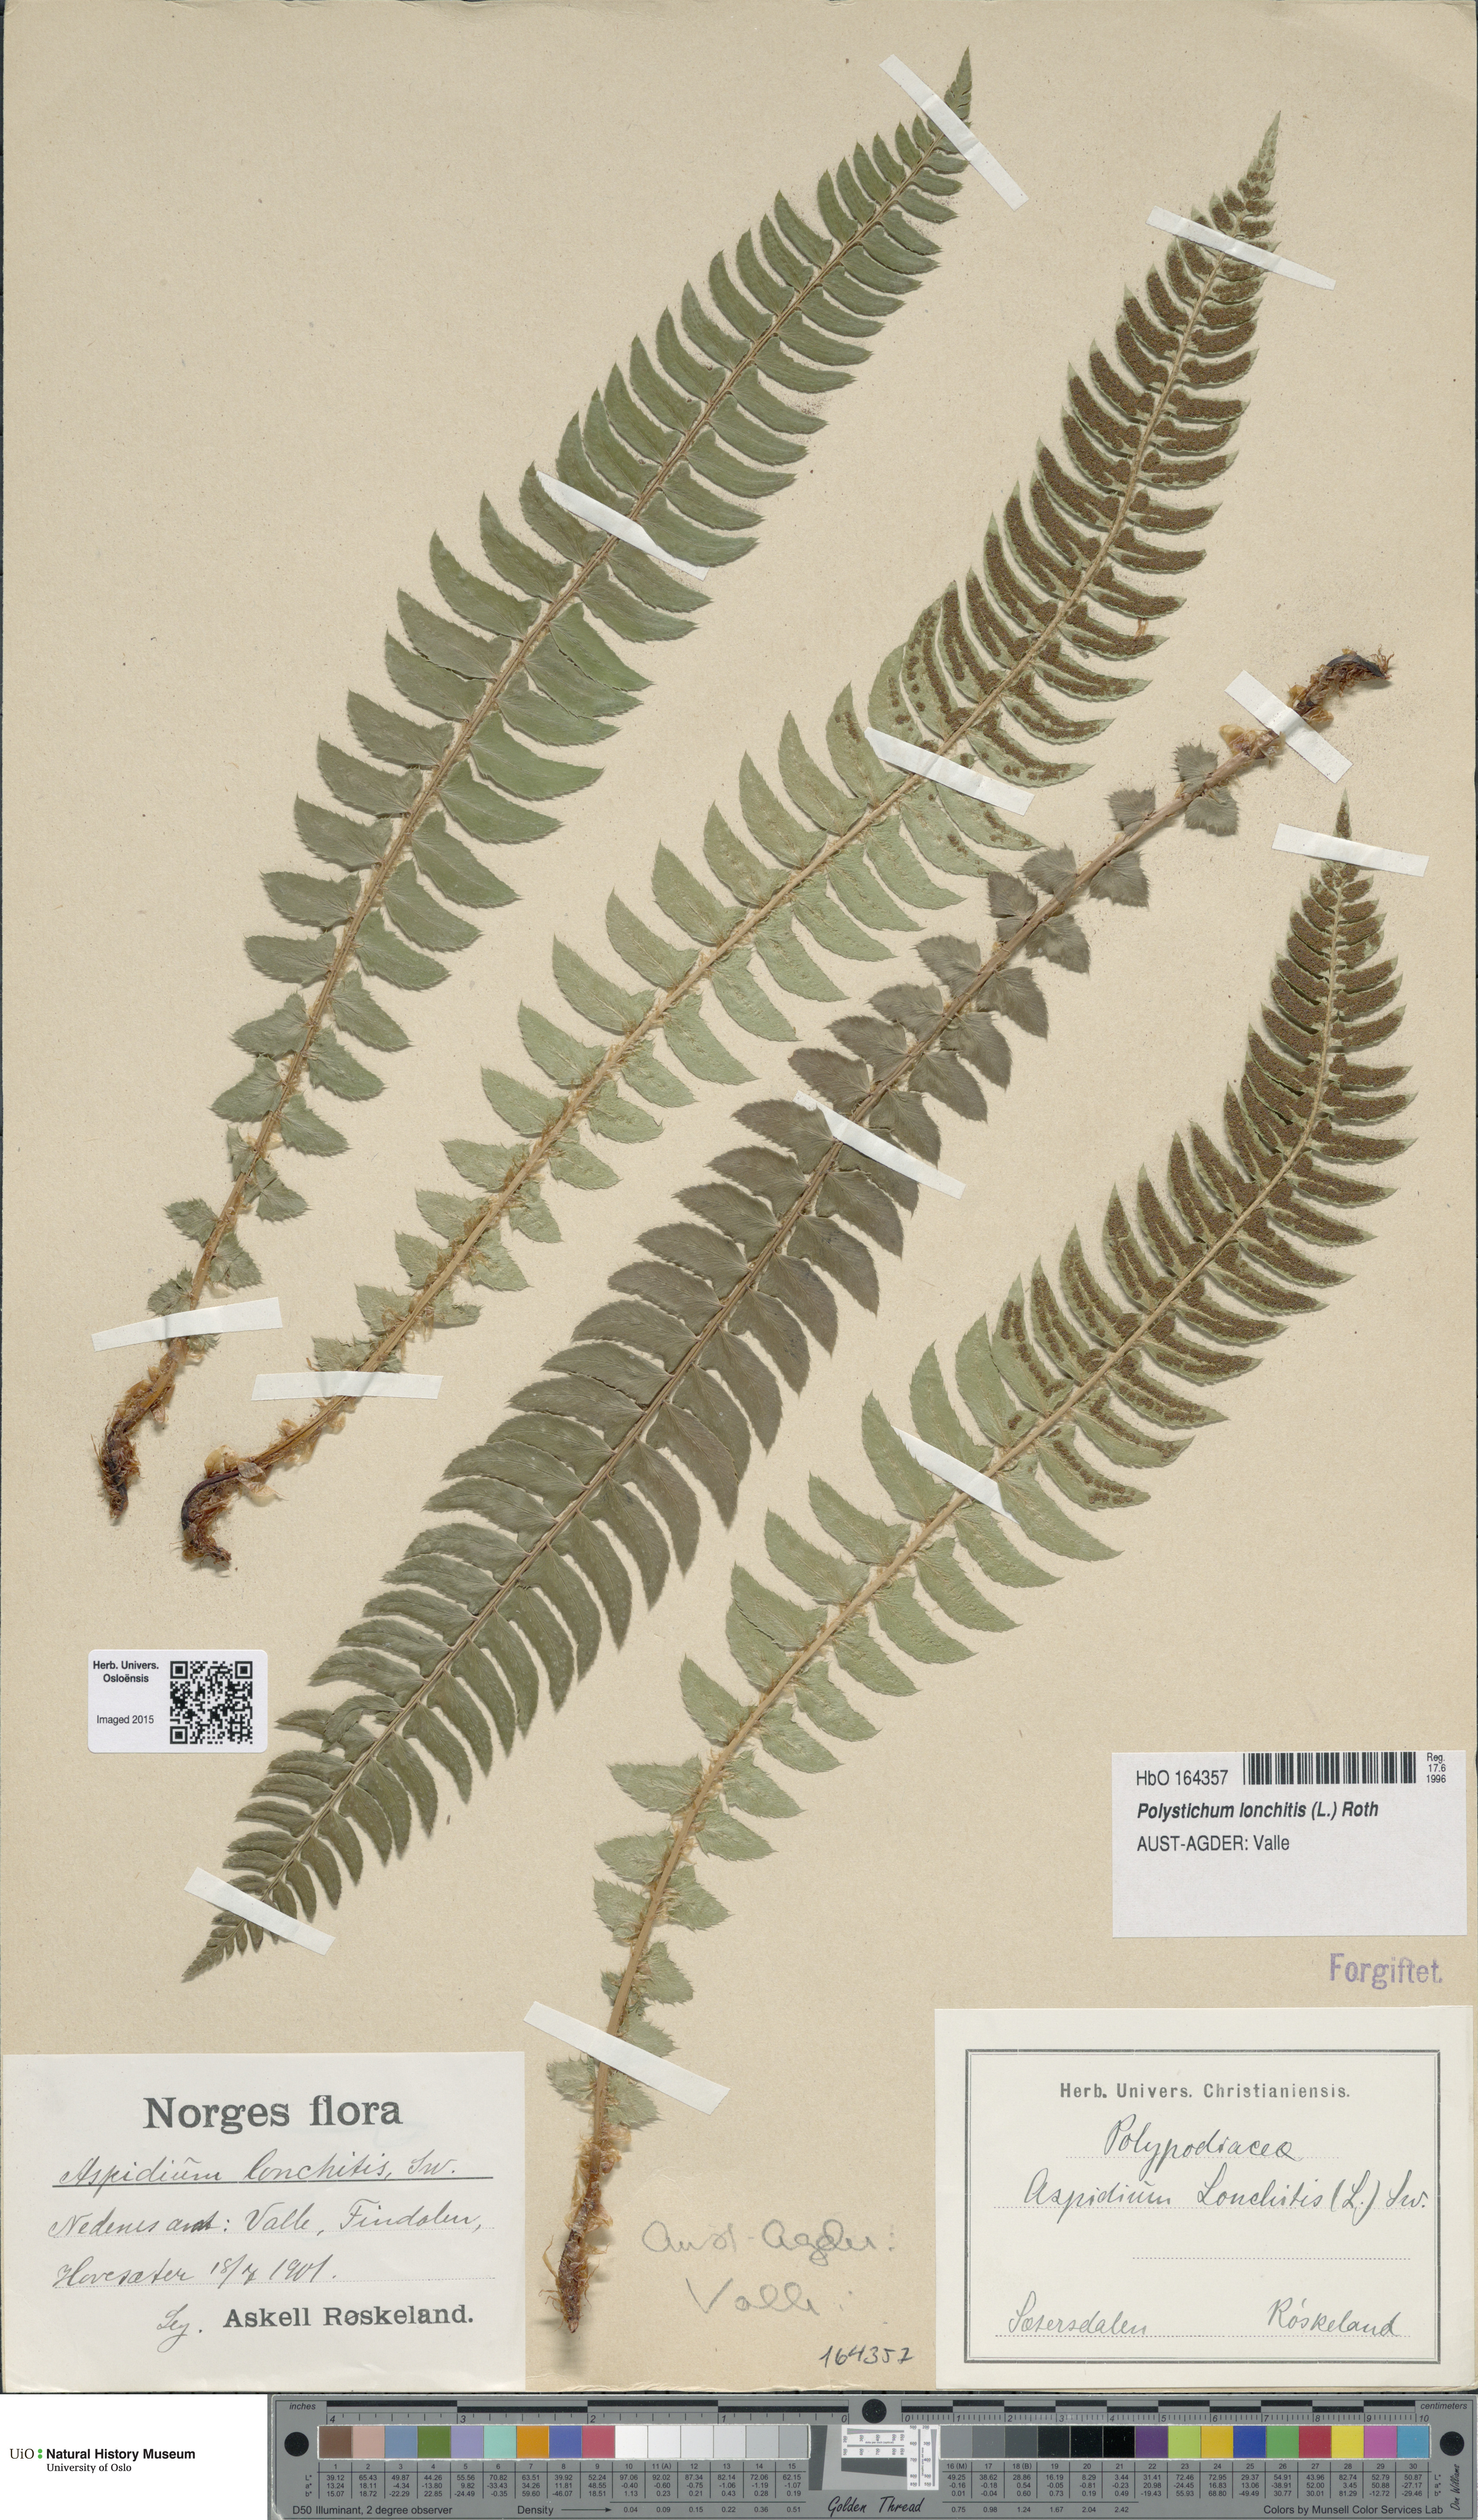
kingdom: Plantae
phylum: Tracheophyta
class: Polypodiopsida
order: Polypodiales
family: Dryopteridaceae
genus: Polystichum
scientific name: Polystichum lonchitis
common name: Holly fern
